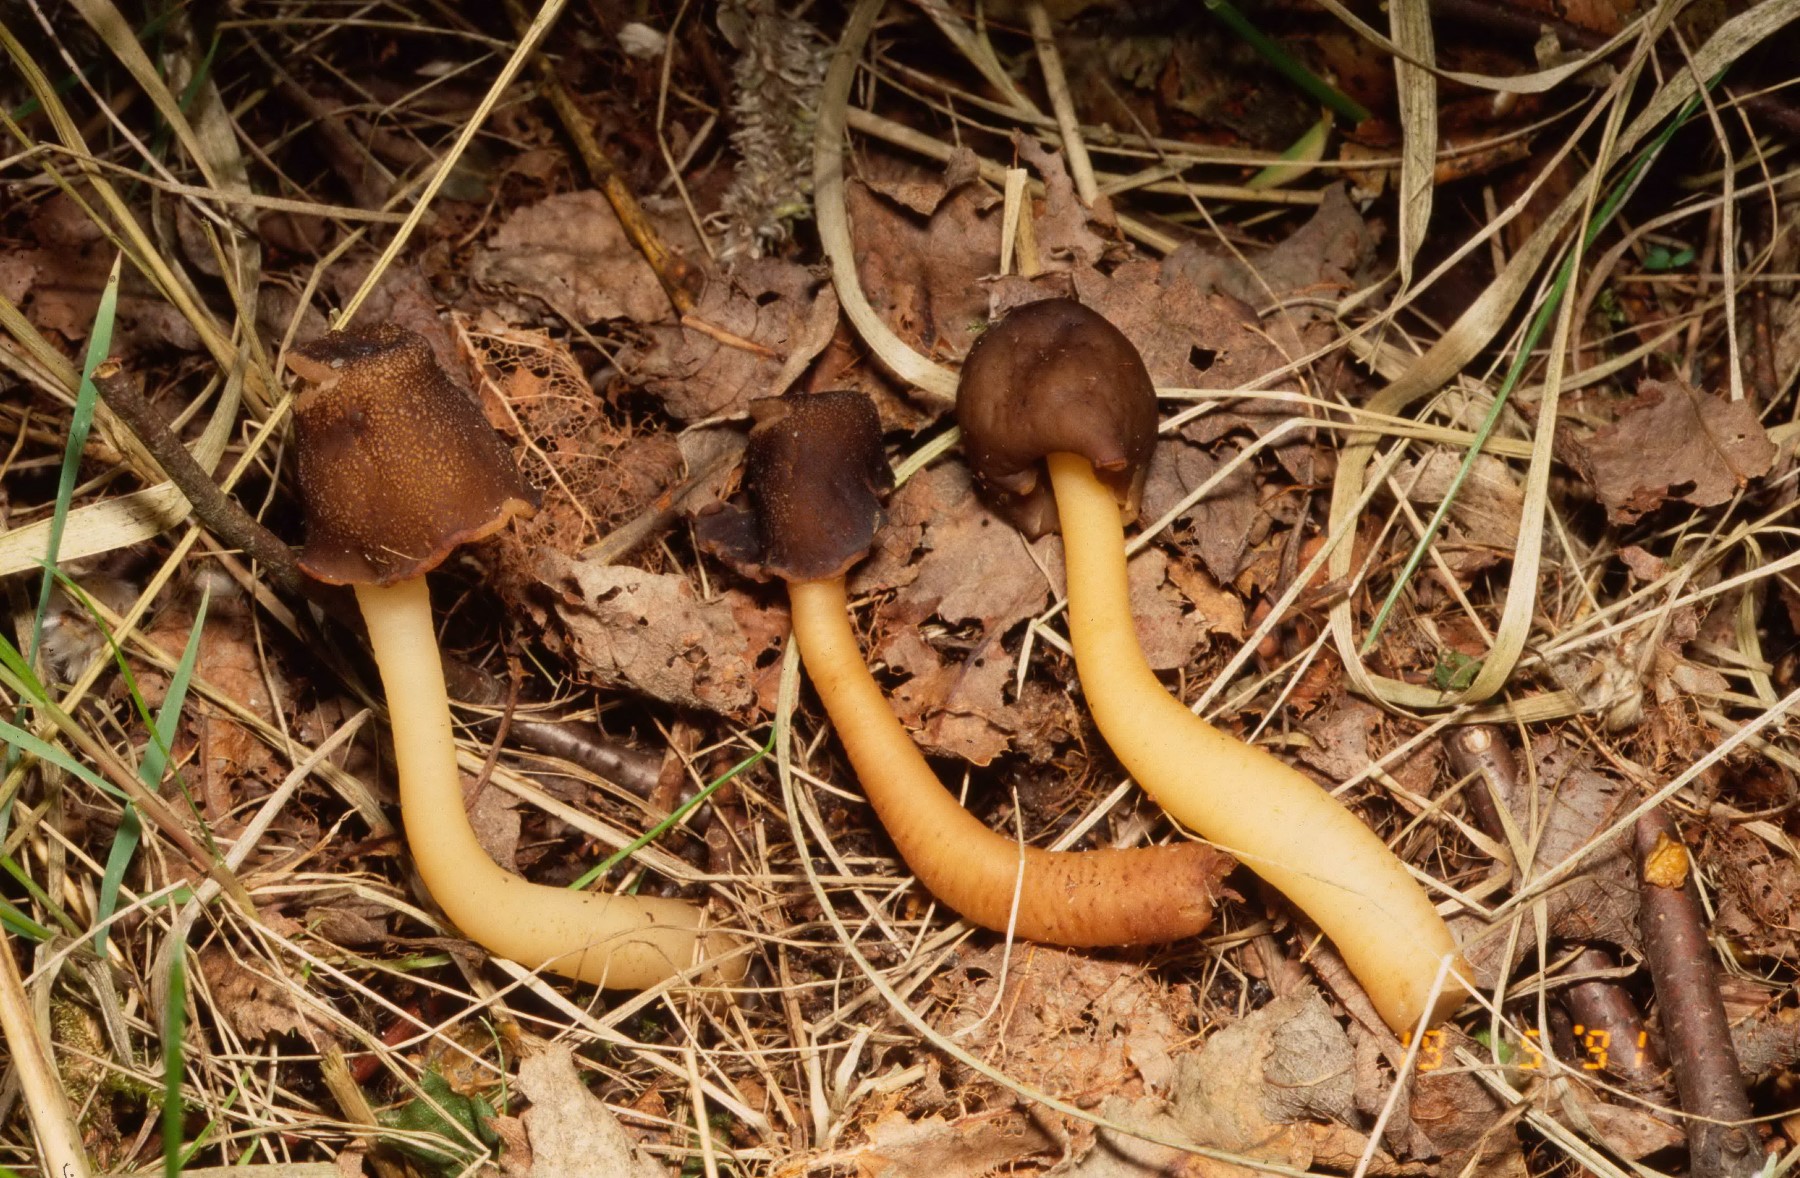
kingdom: Fungi
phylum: Ascomycota
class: Pezizomycetes
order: Pezizales
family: Morchellaceae
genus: Verpa
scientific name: Verpa conica
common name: glat klokkemorkel
